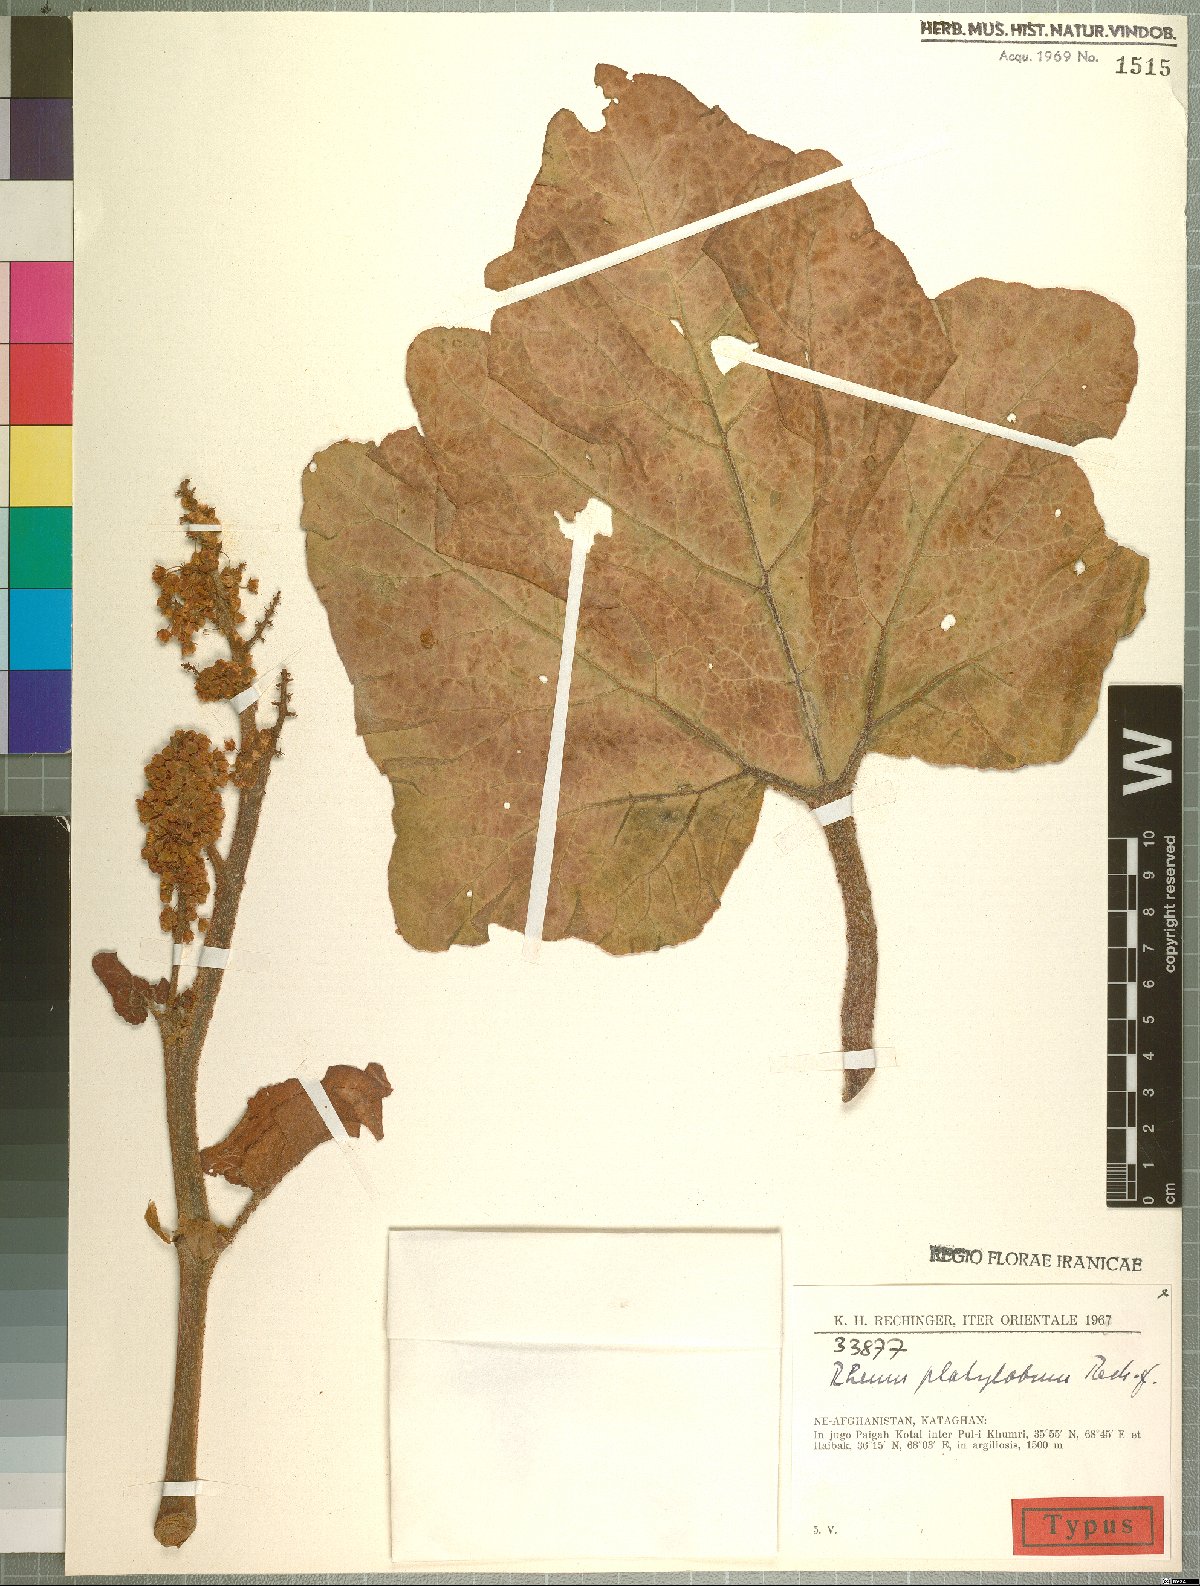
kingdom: Plantae
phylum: Tracheophyta
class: Magnoliopsida
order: Caryophyllales
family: Polygonaceae
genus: Rheum
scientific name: Rheum platylobum
